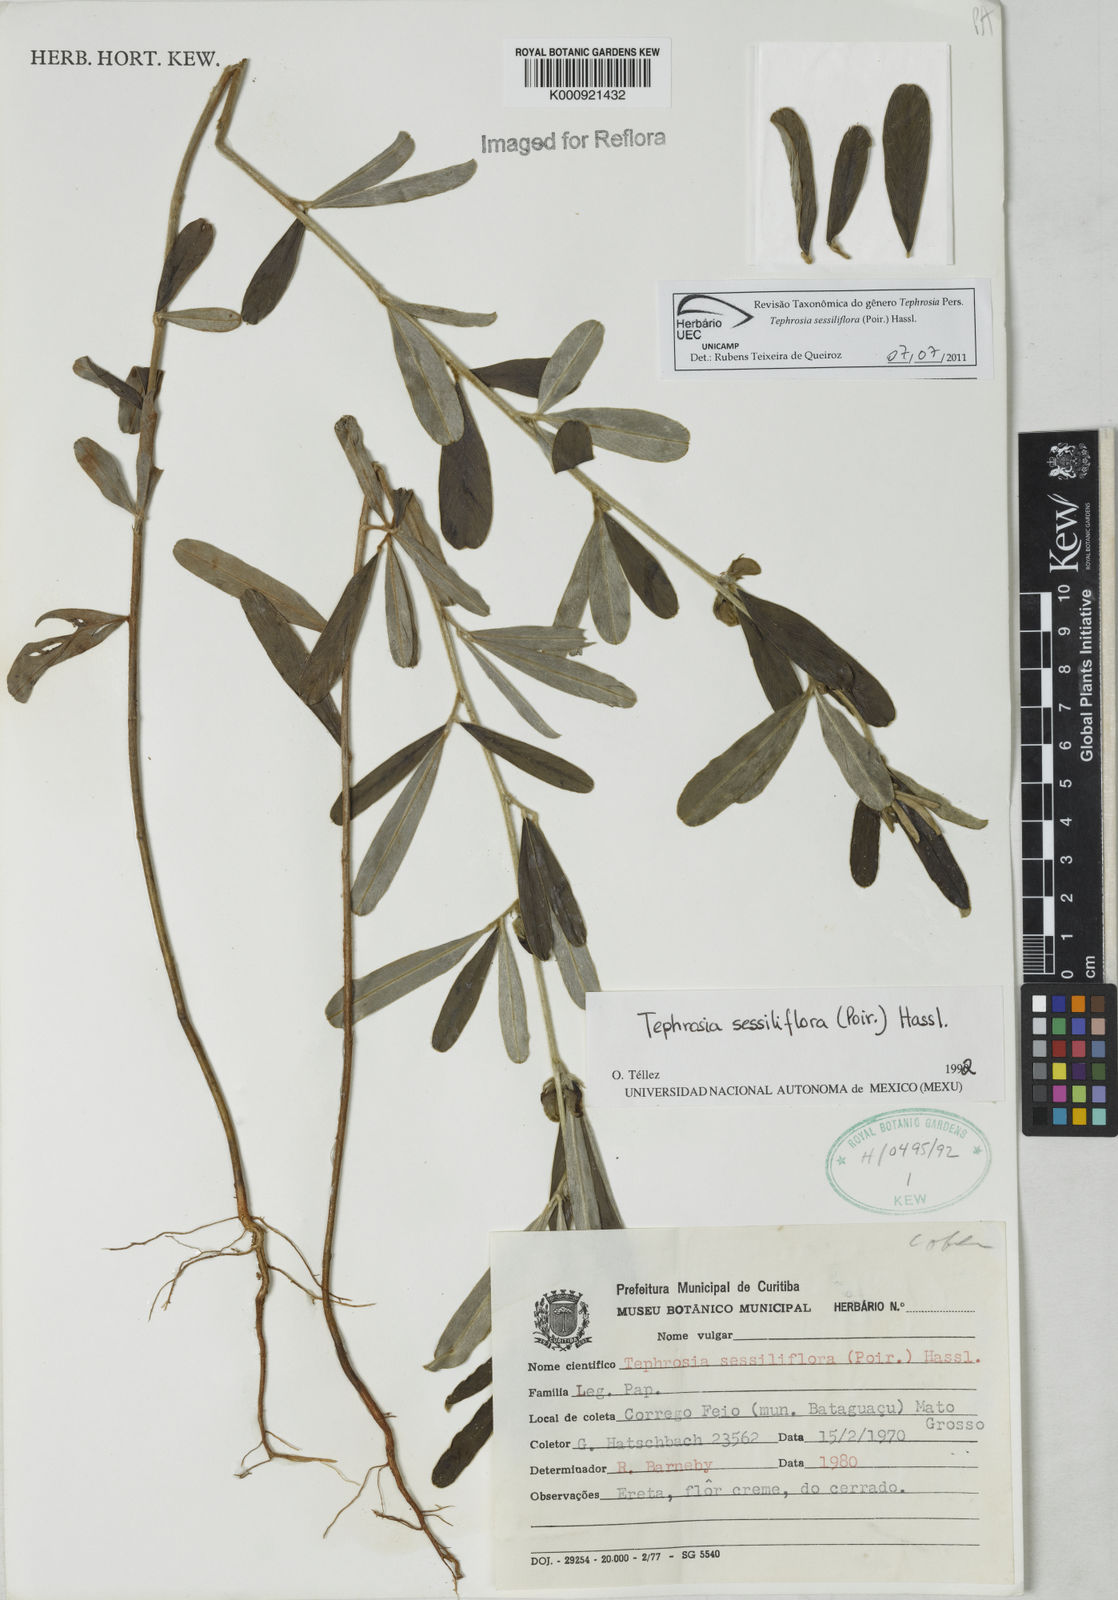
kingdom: Plantae
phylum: Tracheophyta
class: Magnoliopsida
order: Fabales
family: Fabaceae
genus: Tephrosia
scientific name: Tephrosia sessiliflora
